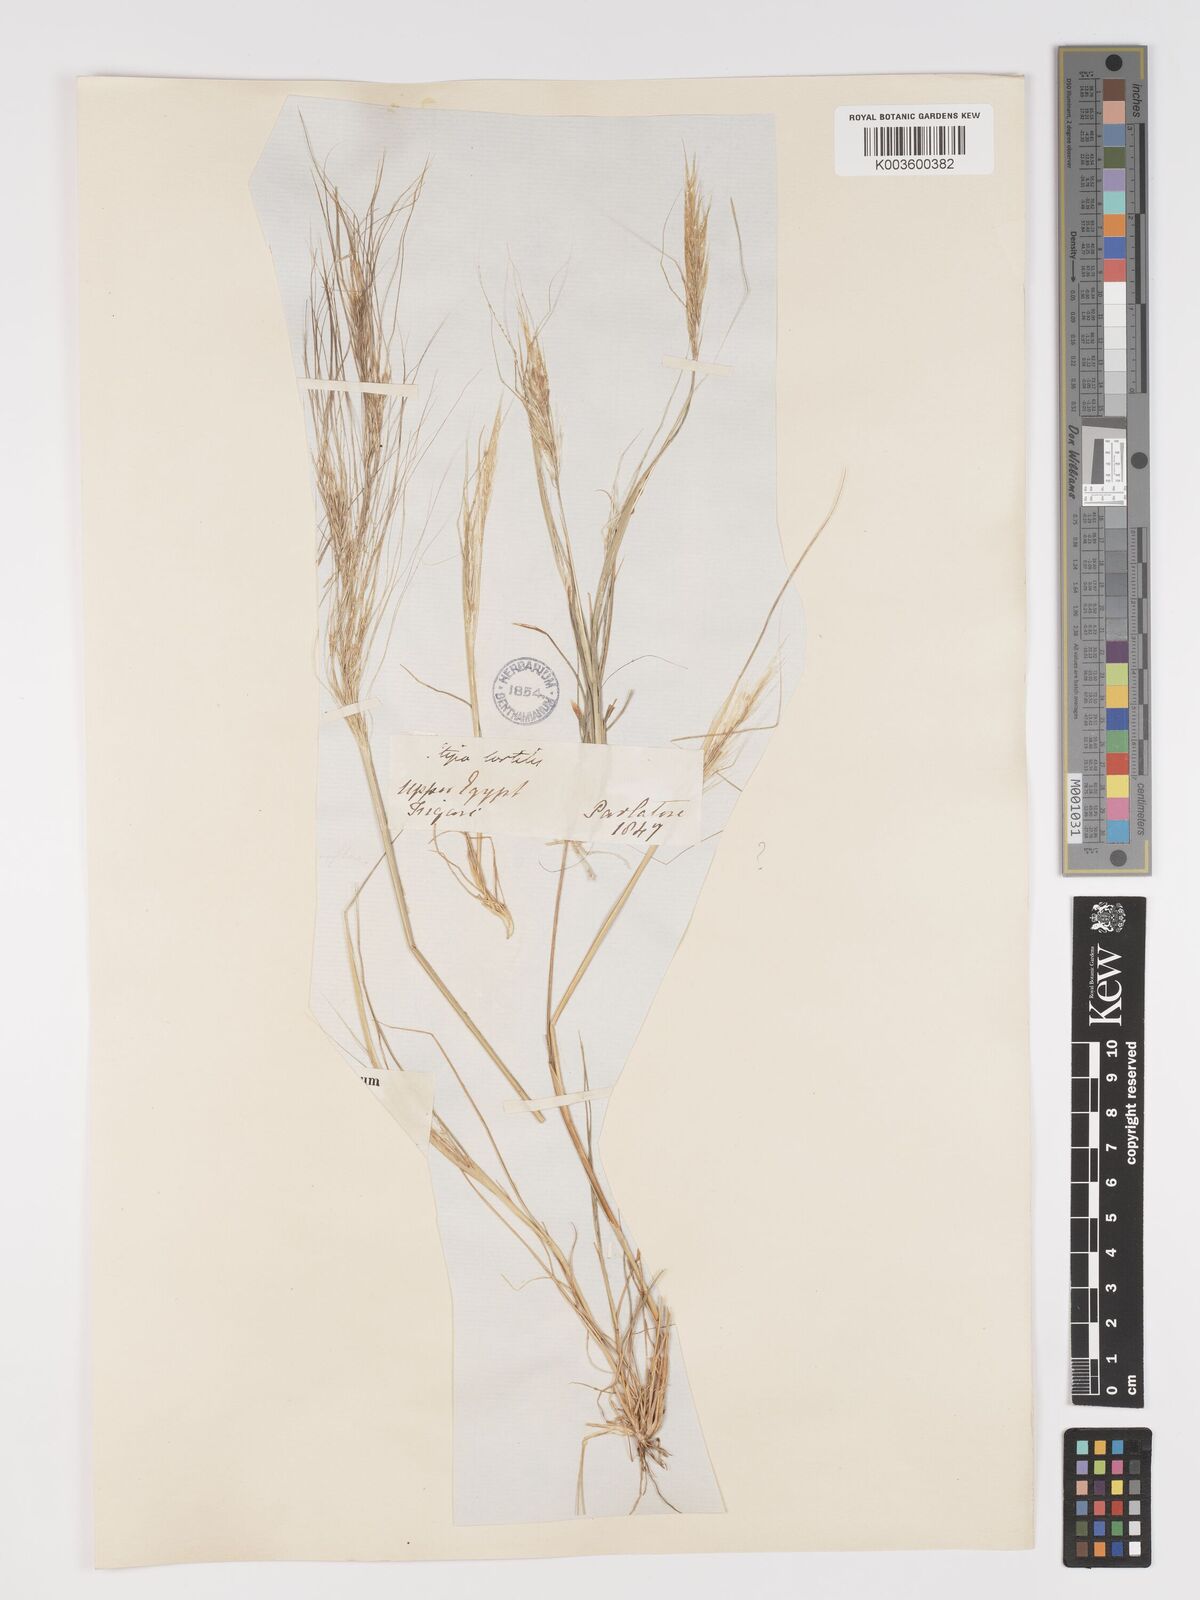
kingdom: Plantae
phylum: Tracheophyta
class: Liliopsida
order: Poales
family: Poaceae
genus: Stipellula
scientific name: Stipellula capensis
